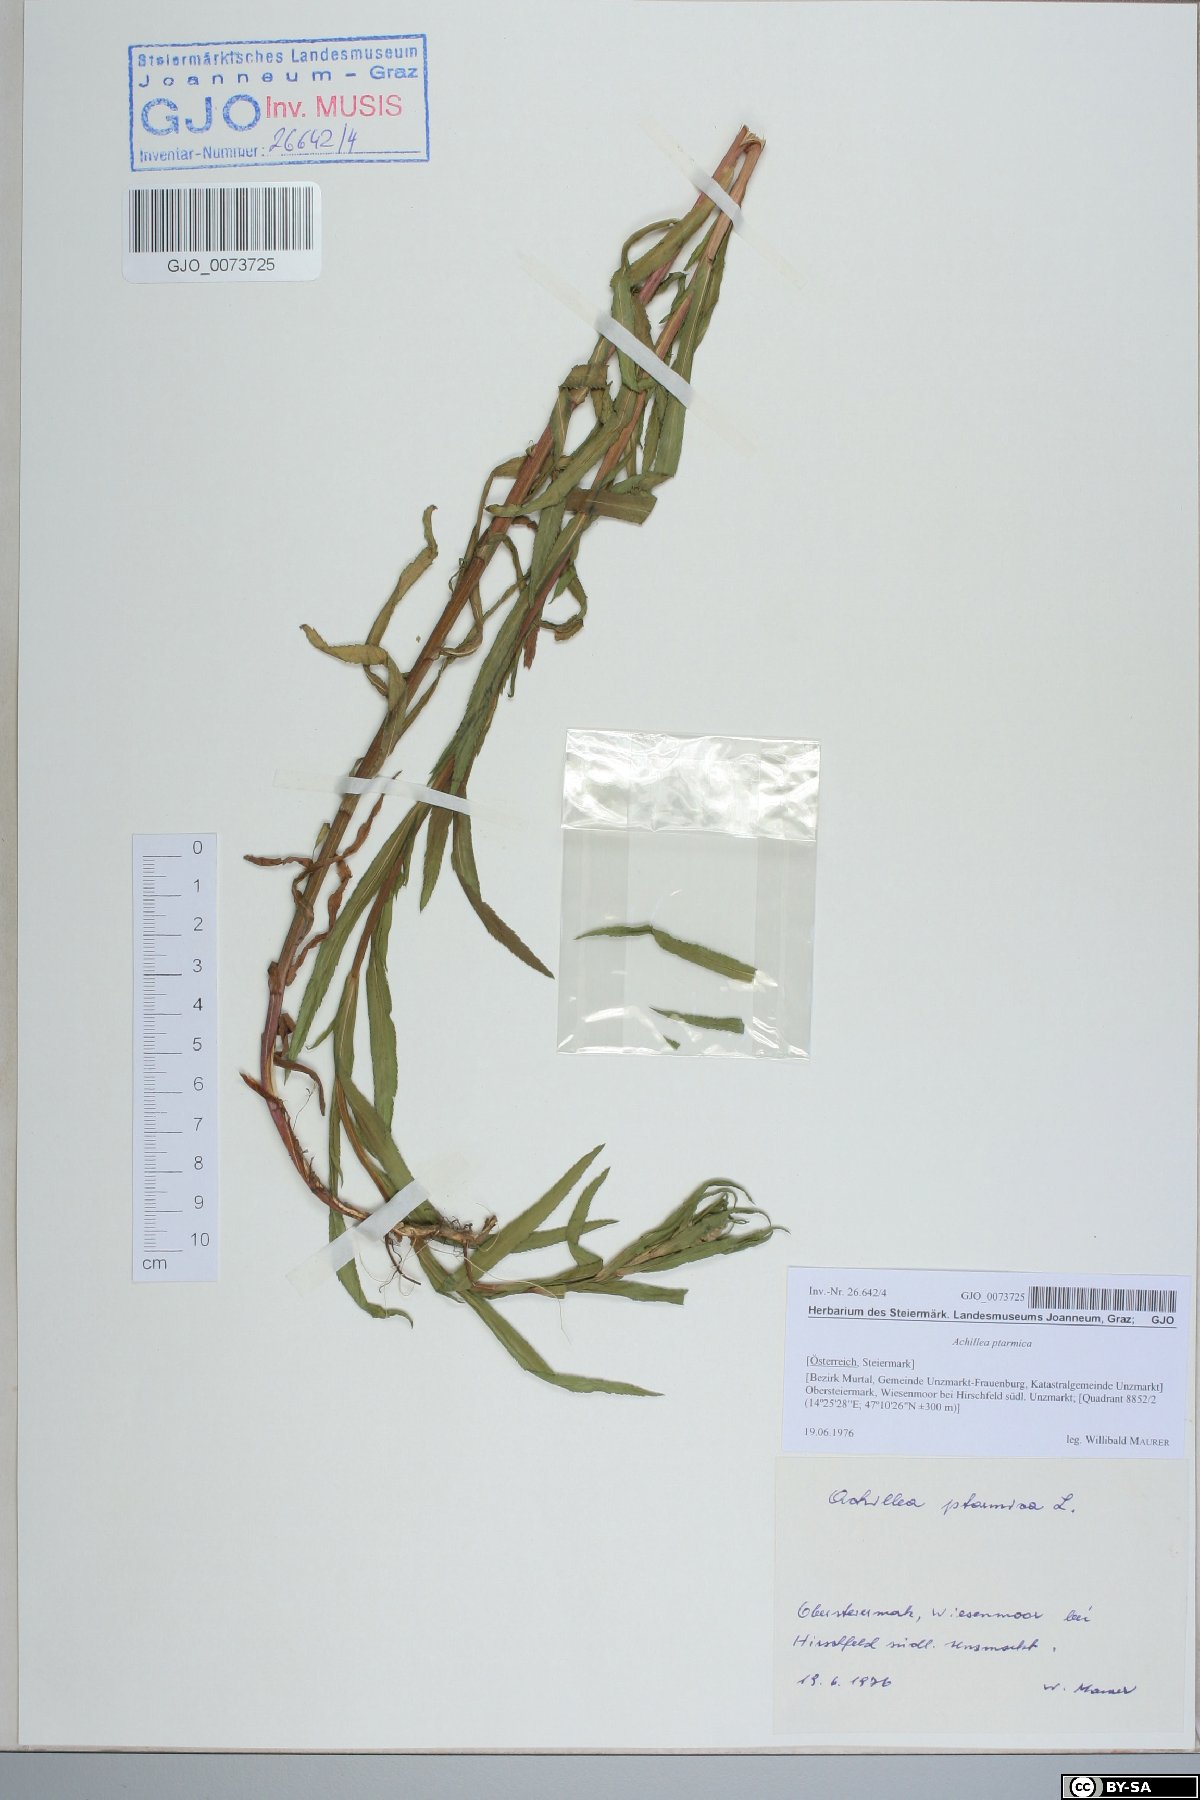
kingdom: Plantae
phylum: Tracheophyta
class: Magnoliopsida
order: Asterales
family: Asteraceae
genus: Achillea
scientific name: Achillea ptarmica
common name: Sneezeweed
